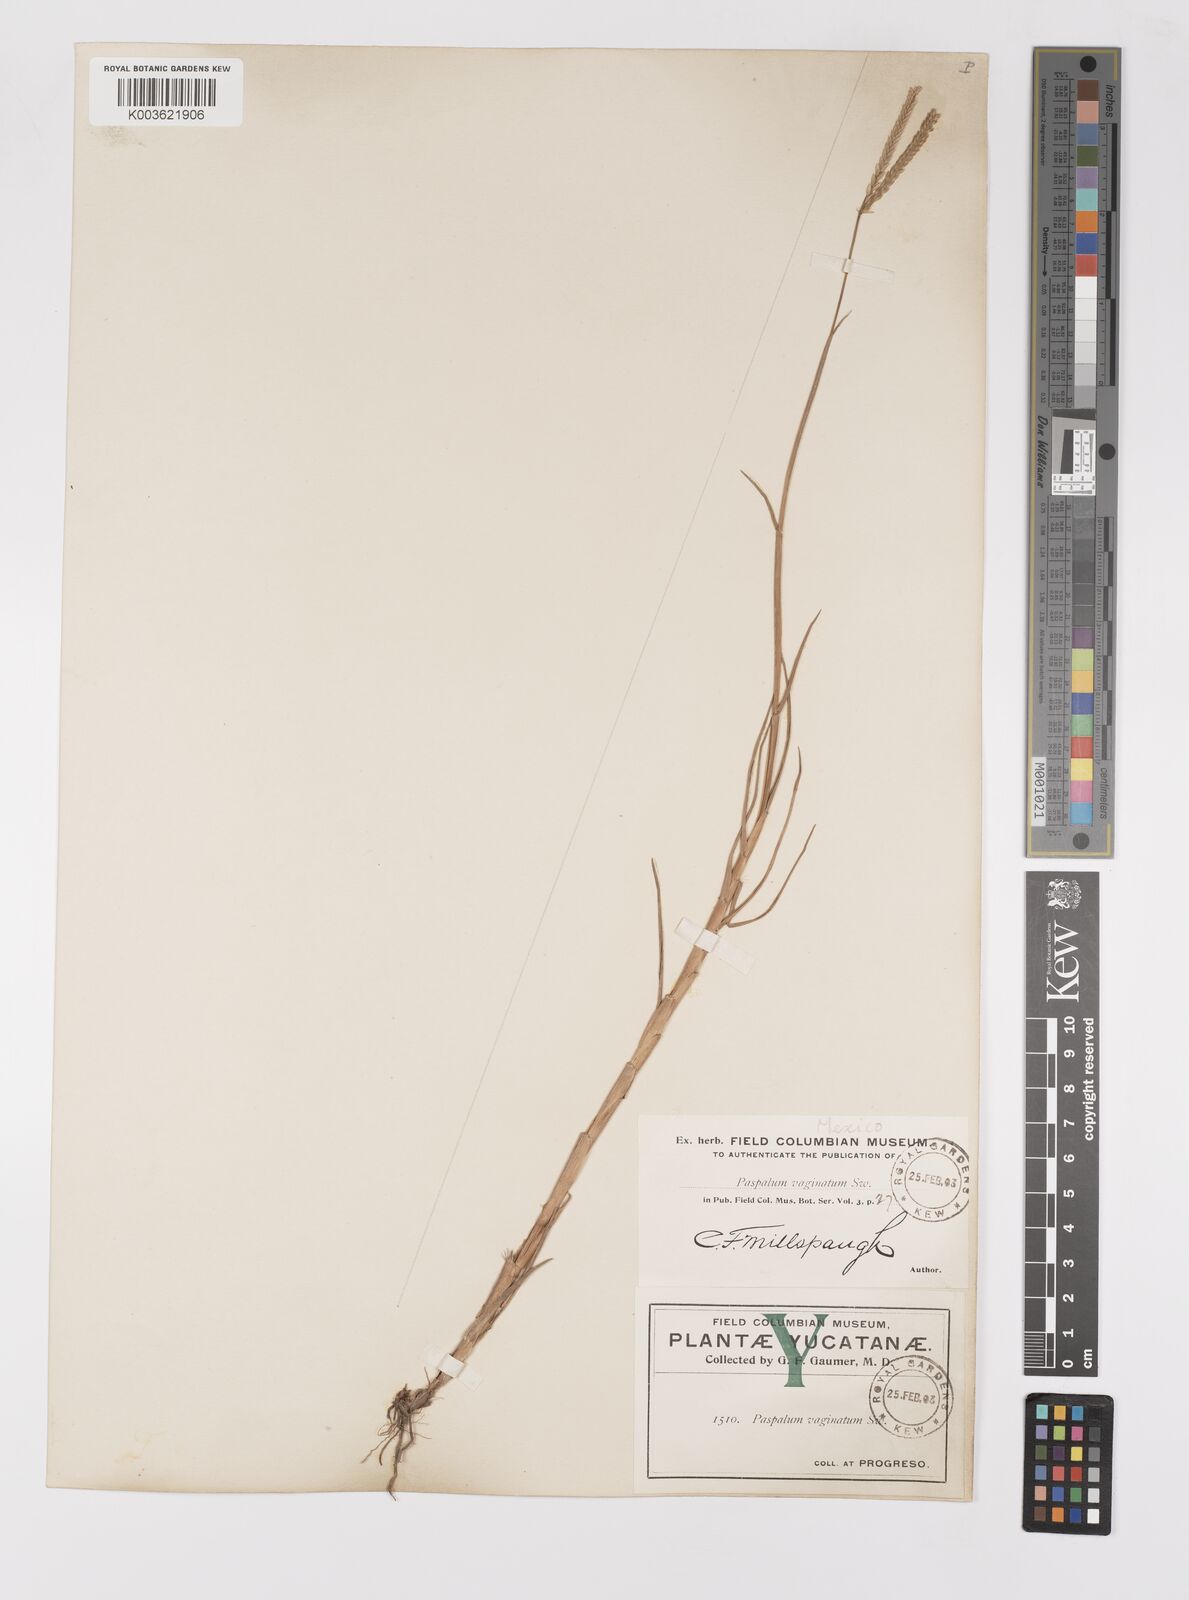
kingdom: Plantae
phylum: Tracheophyta
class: Liliopsida
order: Poales
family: Poaceae
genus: Paspalum
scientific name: Paspalum vaginatum
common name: Seashore paspalum
